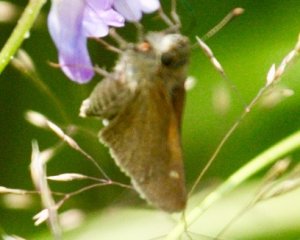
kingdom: Animalia
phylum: Arthropoda
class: Insecta
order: Lepidoptera
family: Hesperiidae
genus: Polites
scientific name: Polites themistocles
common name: Tawny-edged Skipper
